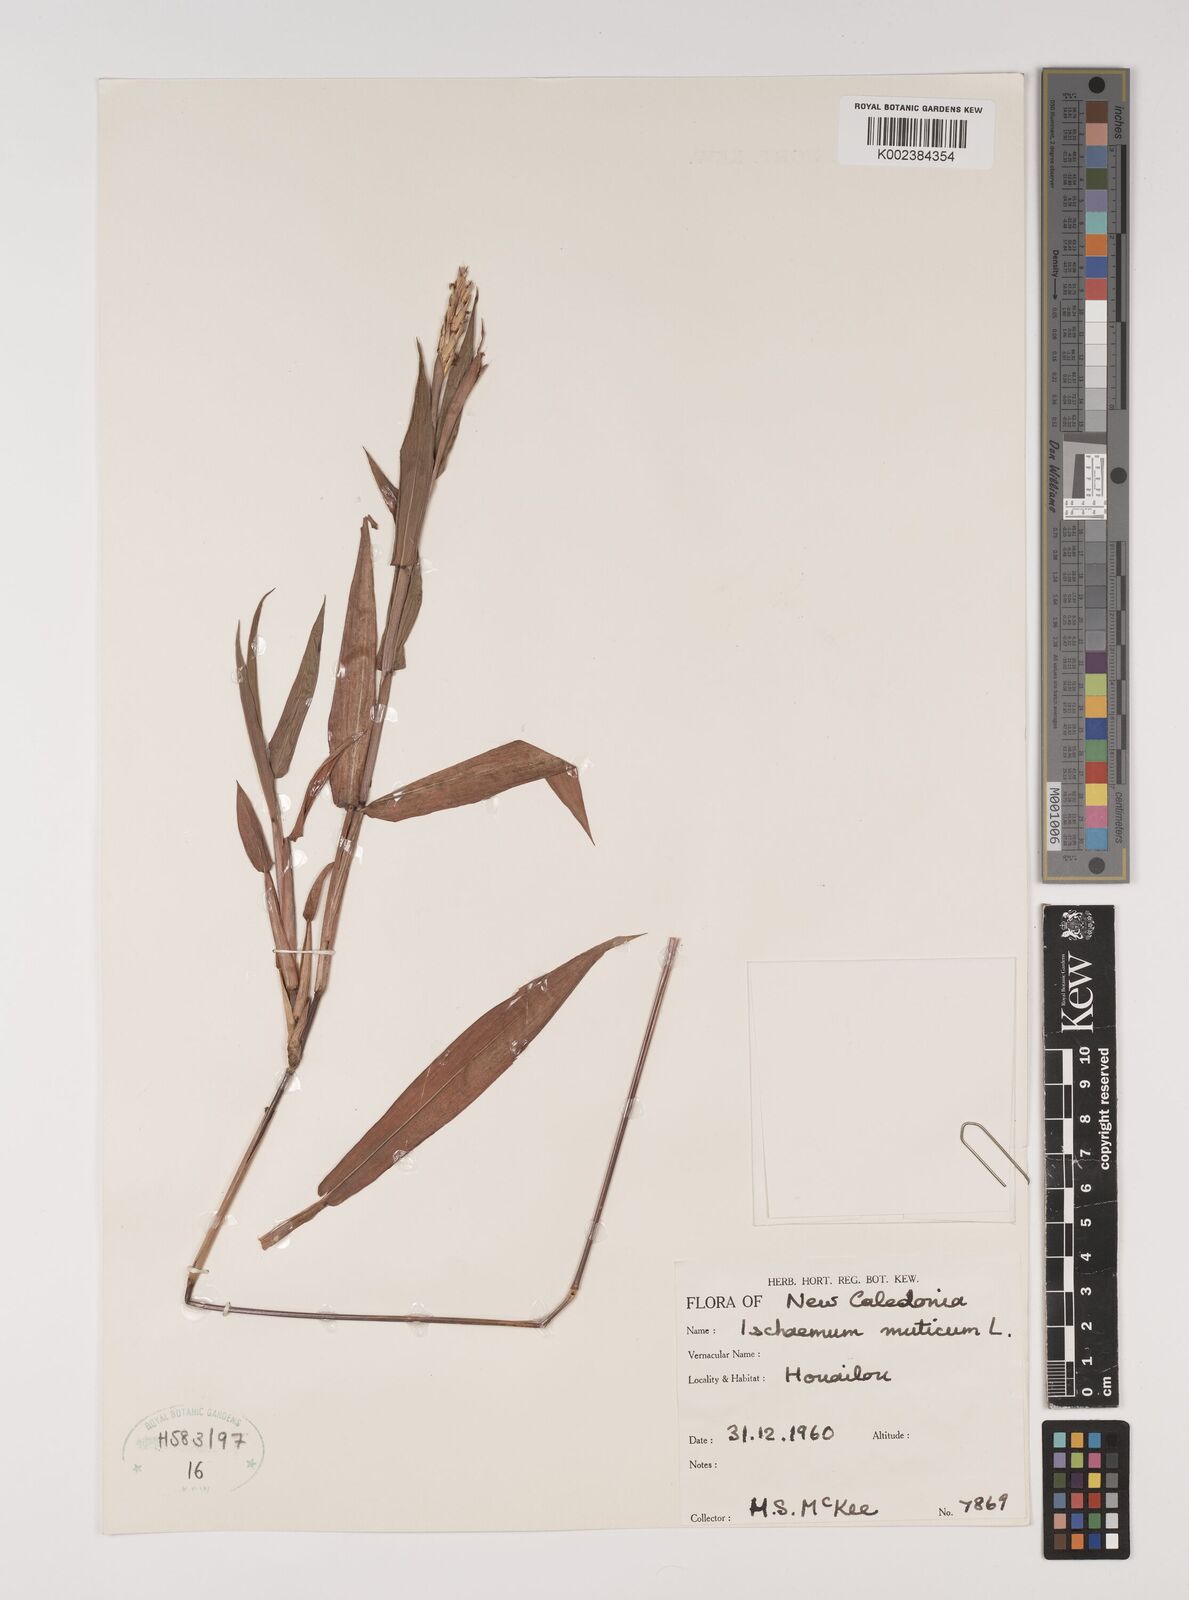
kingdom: Plantae
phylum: Tracheophyta
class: Liliopsida
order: Poales
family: Poaceae
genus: Ischaemum
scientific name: Ischaemum muticum
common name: Drought grass
